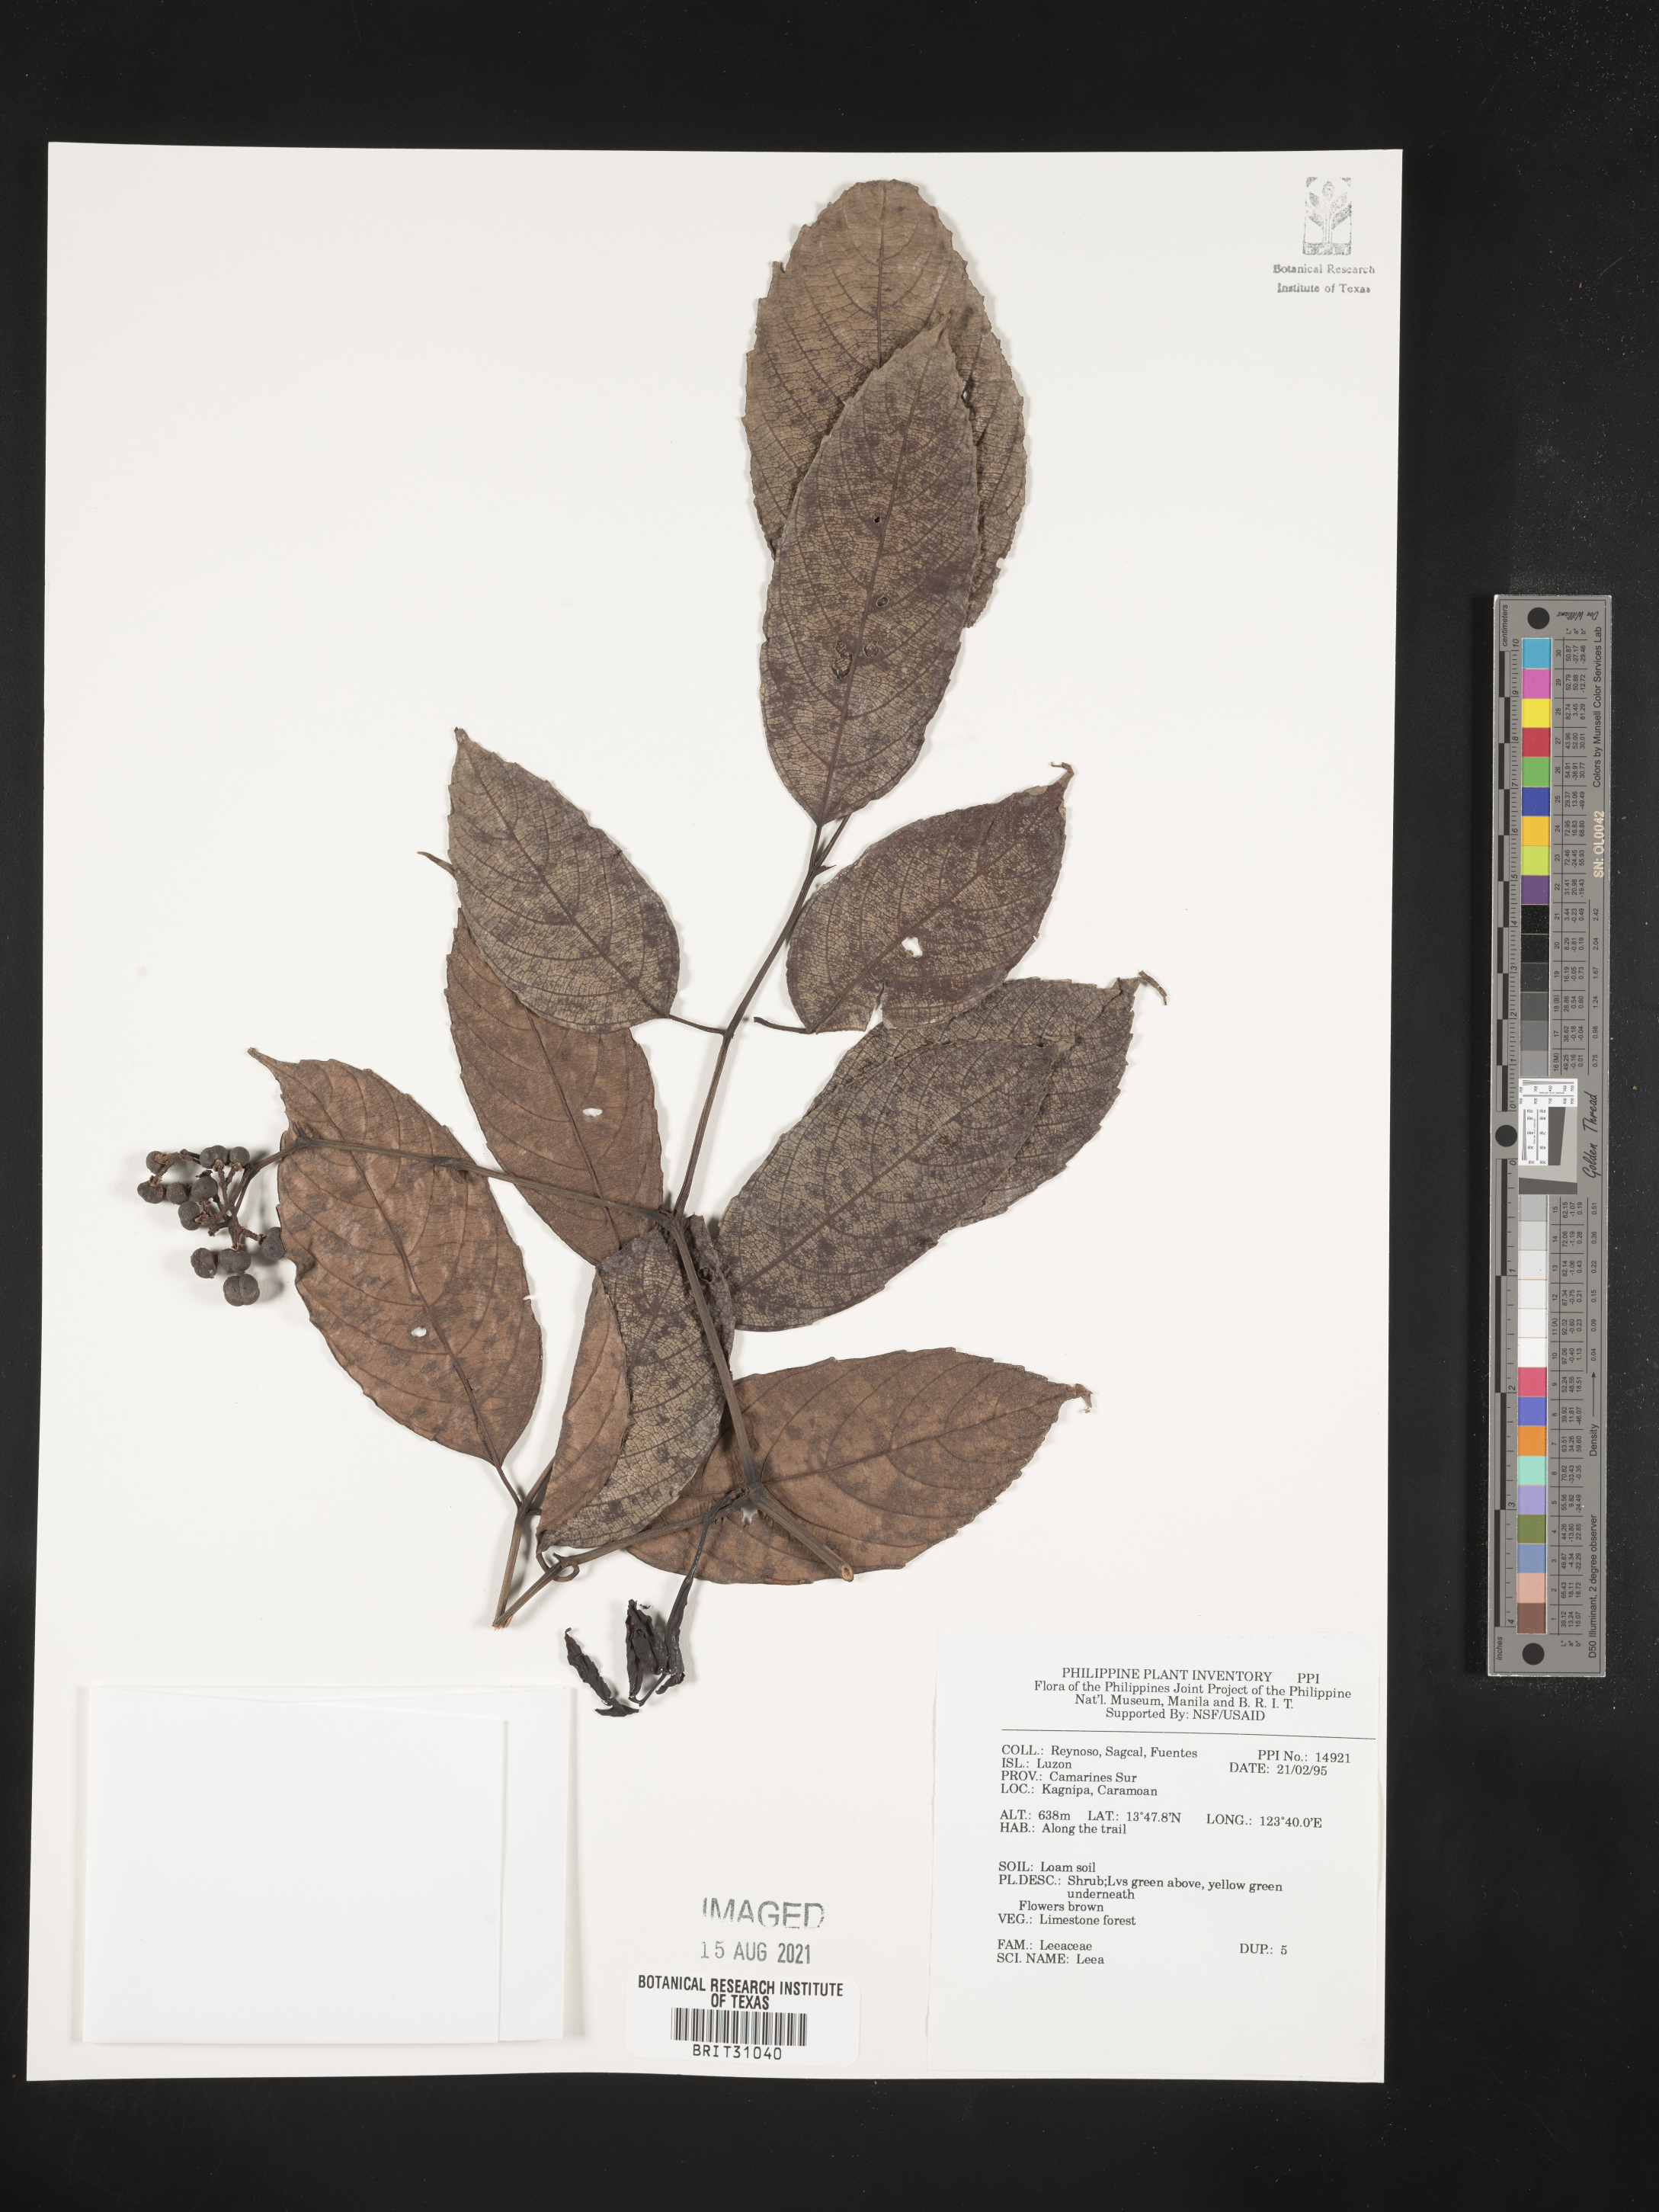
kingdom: Plantae
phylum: Tracheophyta
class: Magnoliopsida
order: Vitales
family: Vitaceae
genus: Leea
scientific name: Leea
